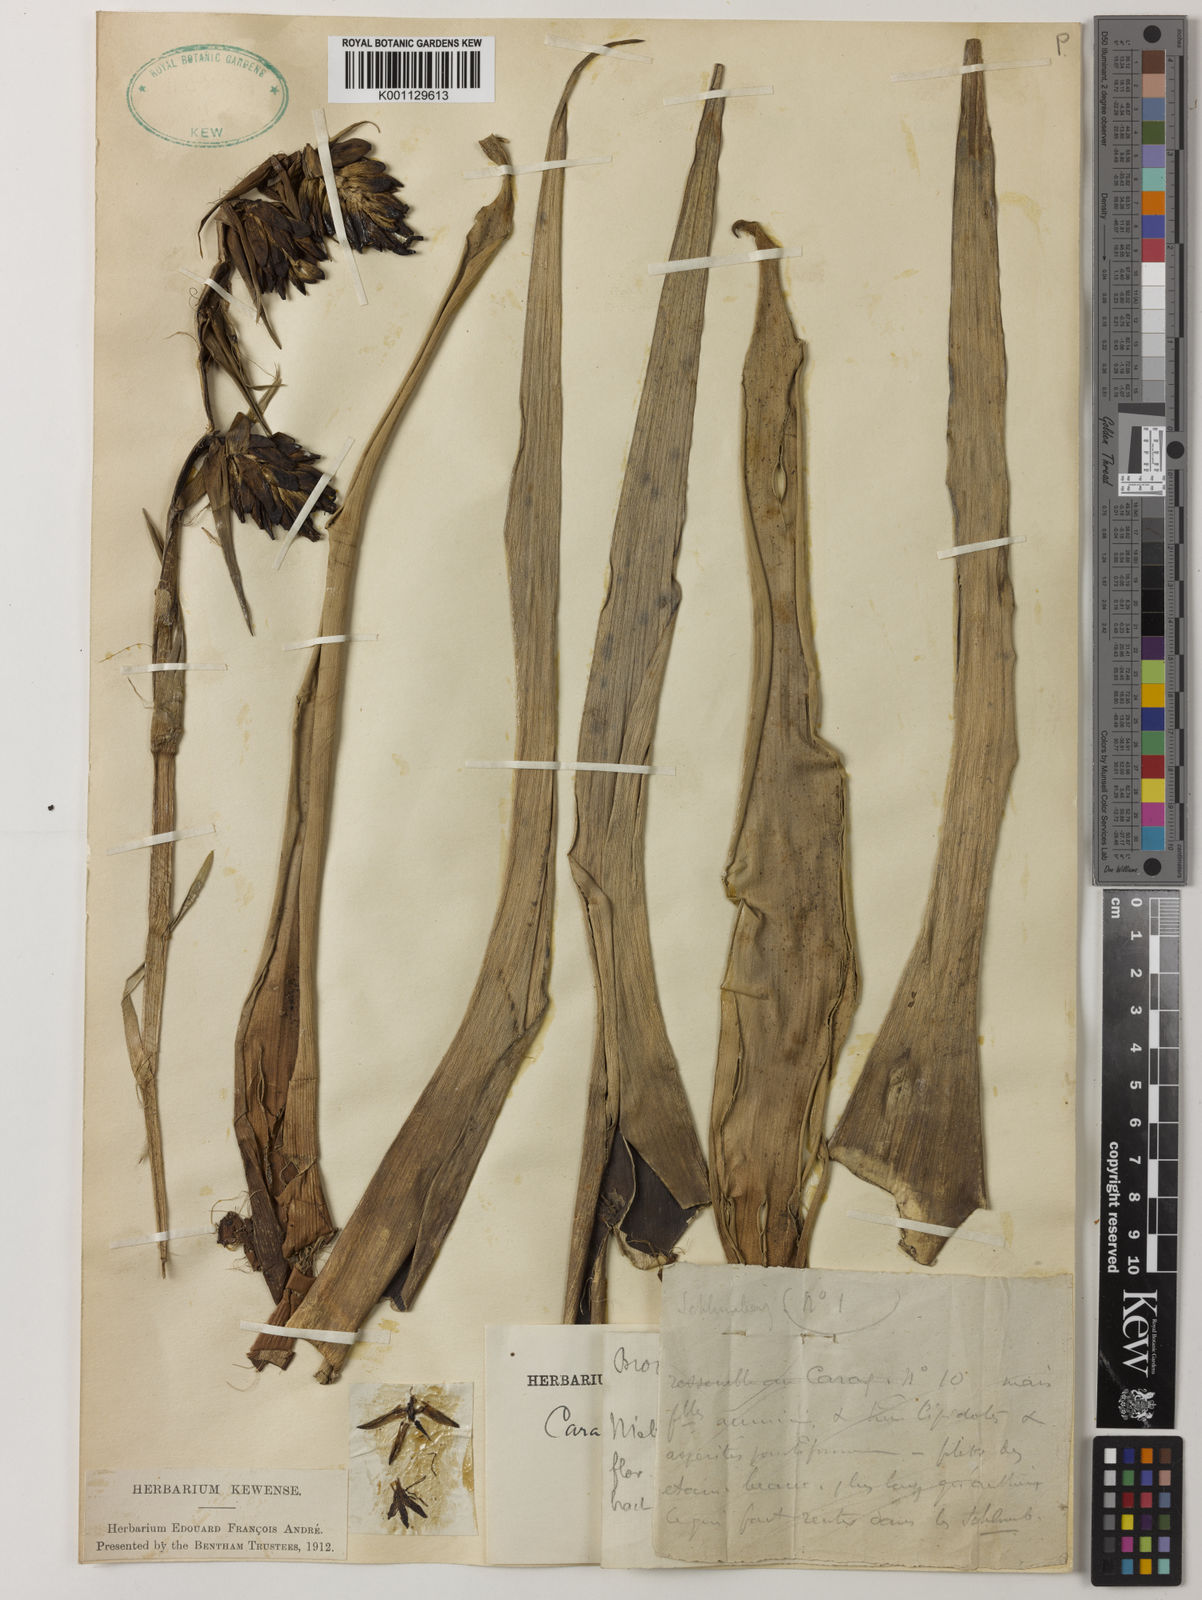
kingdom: Plantae
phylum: Tracheophyta
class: Liliopsida
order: Poales
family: Bromeliaceae
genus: Guzmania
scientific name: Guzmania
